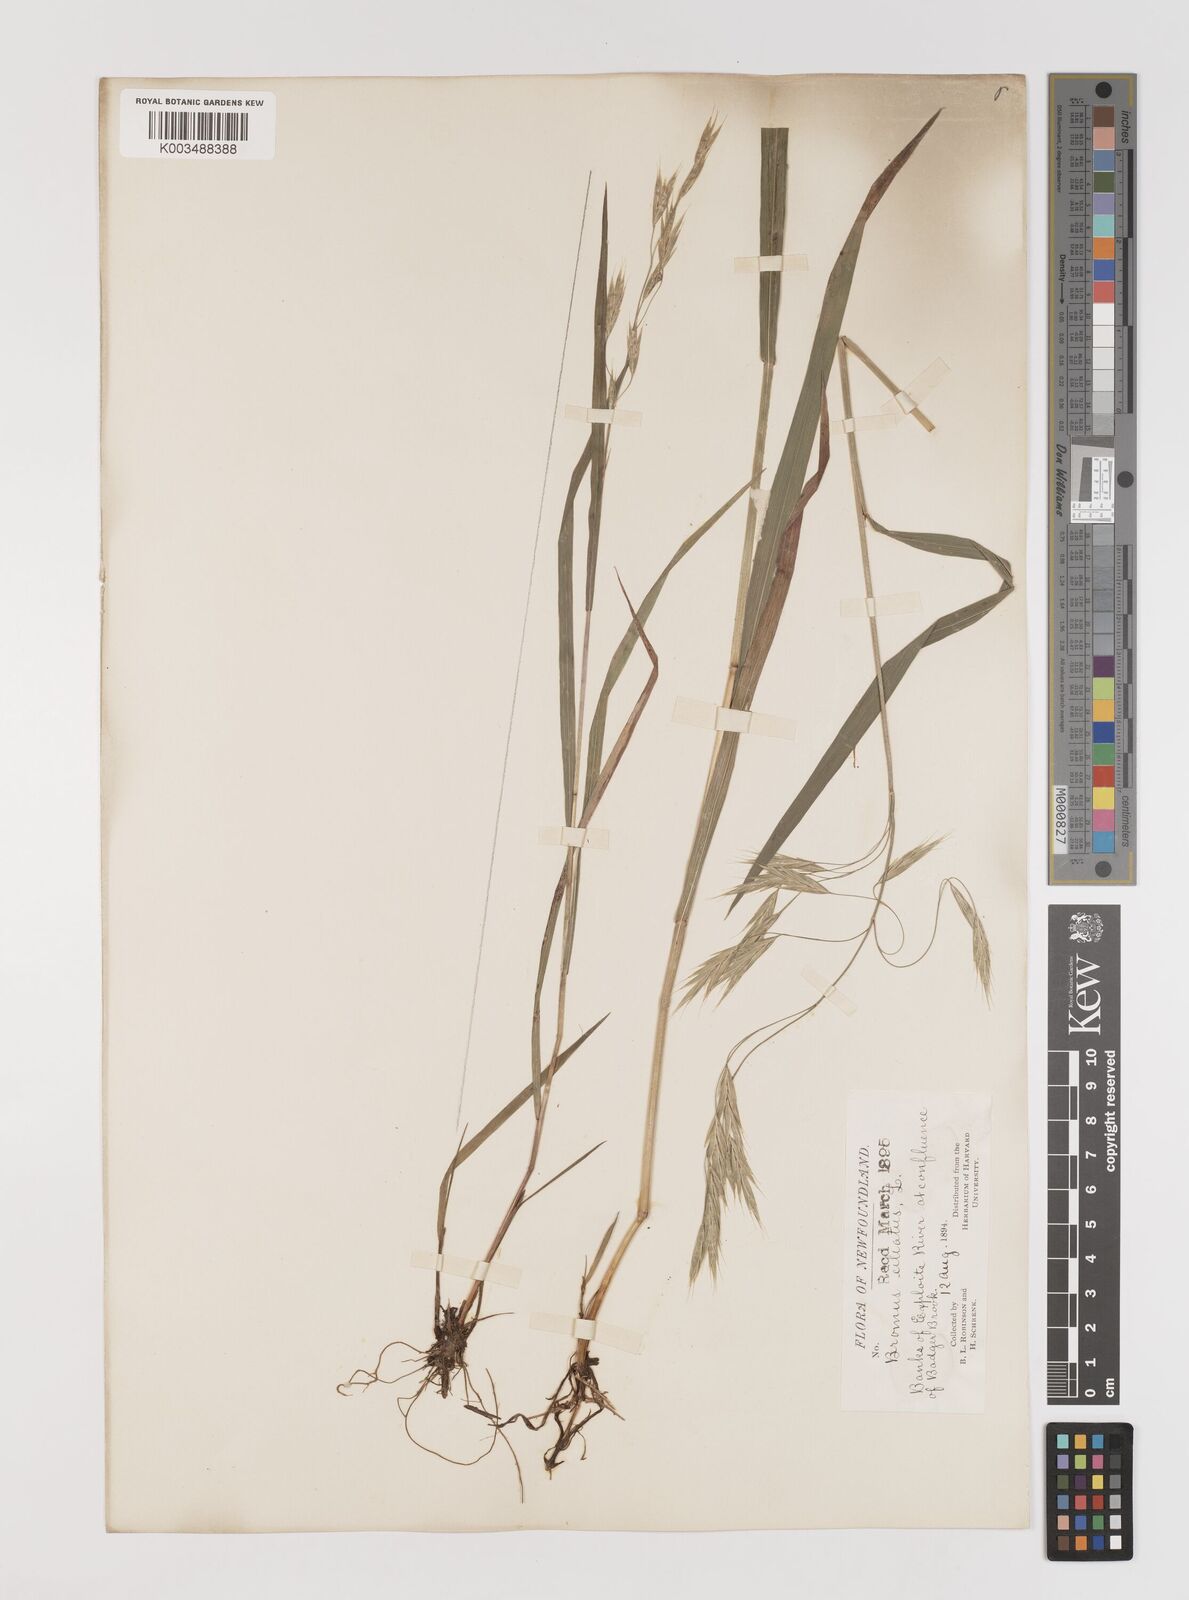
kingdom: Plantae
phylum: Tracheophyta
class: Liliopsida
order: Poales
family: Poaceae
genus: Bromus
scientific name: Bromus ciliatus
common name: Fringe brome
